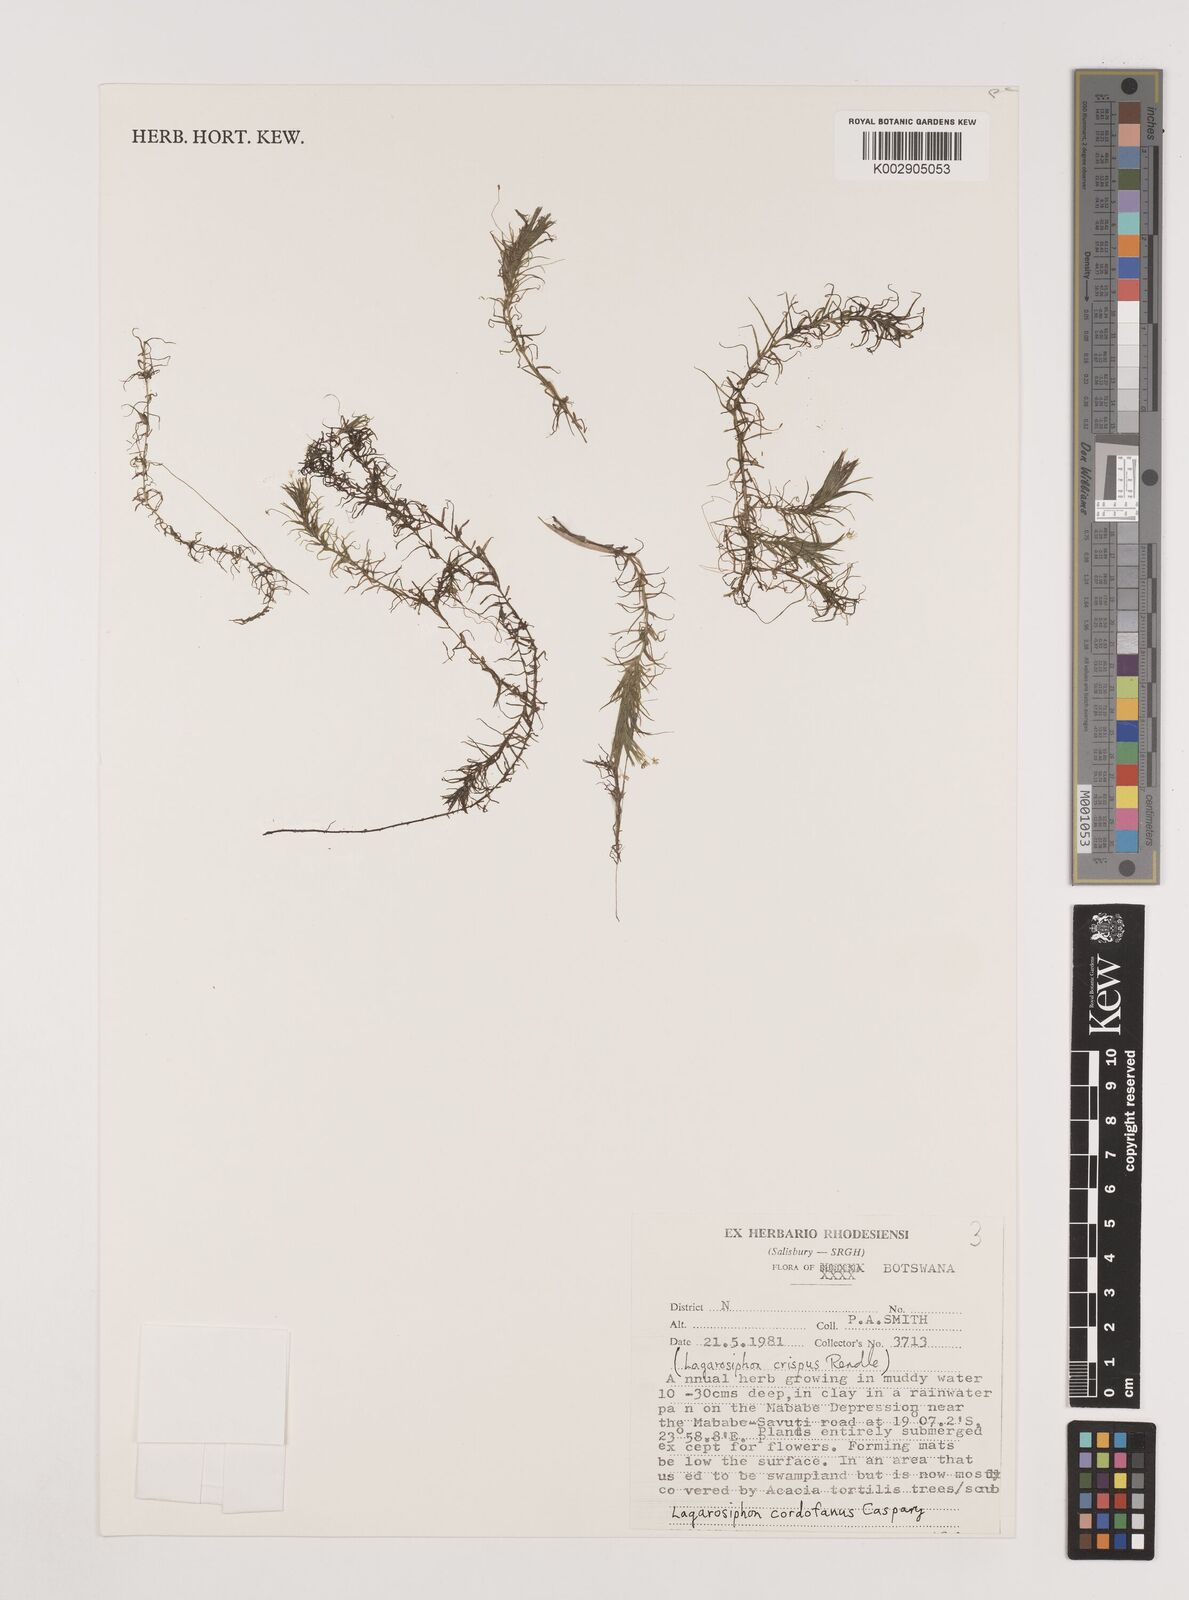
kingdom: Plantae
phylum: Tracheophyta
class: Liliopsida
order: Alismatales
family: Hydrocharitaceae
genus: Lagarosiphon
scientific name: Lagarosiphon cordofanus
